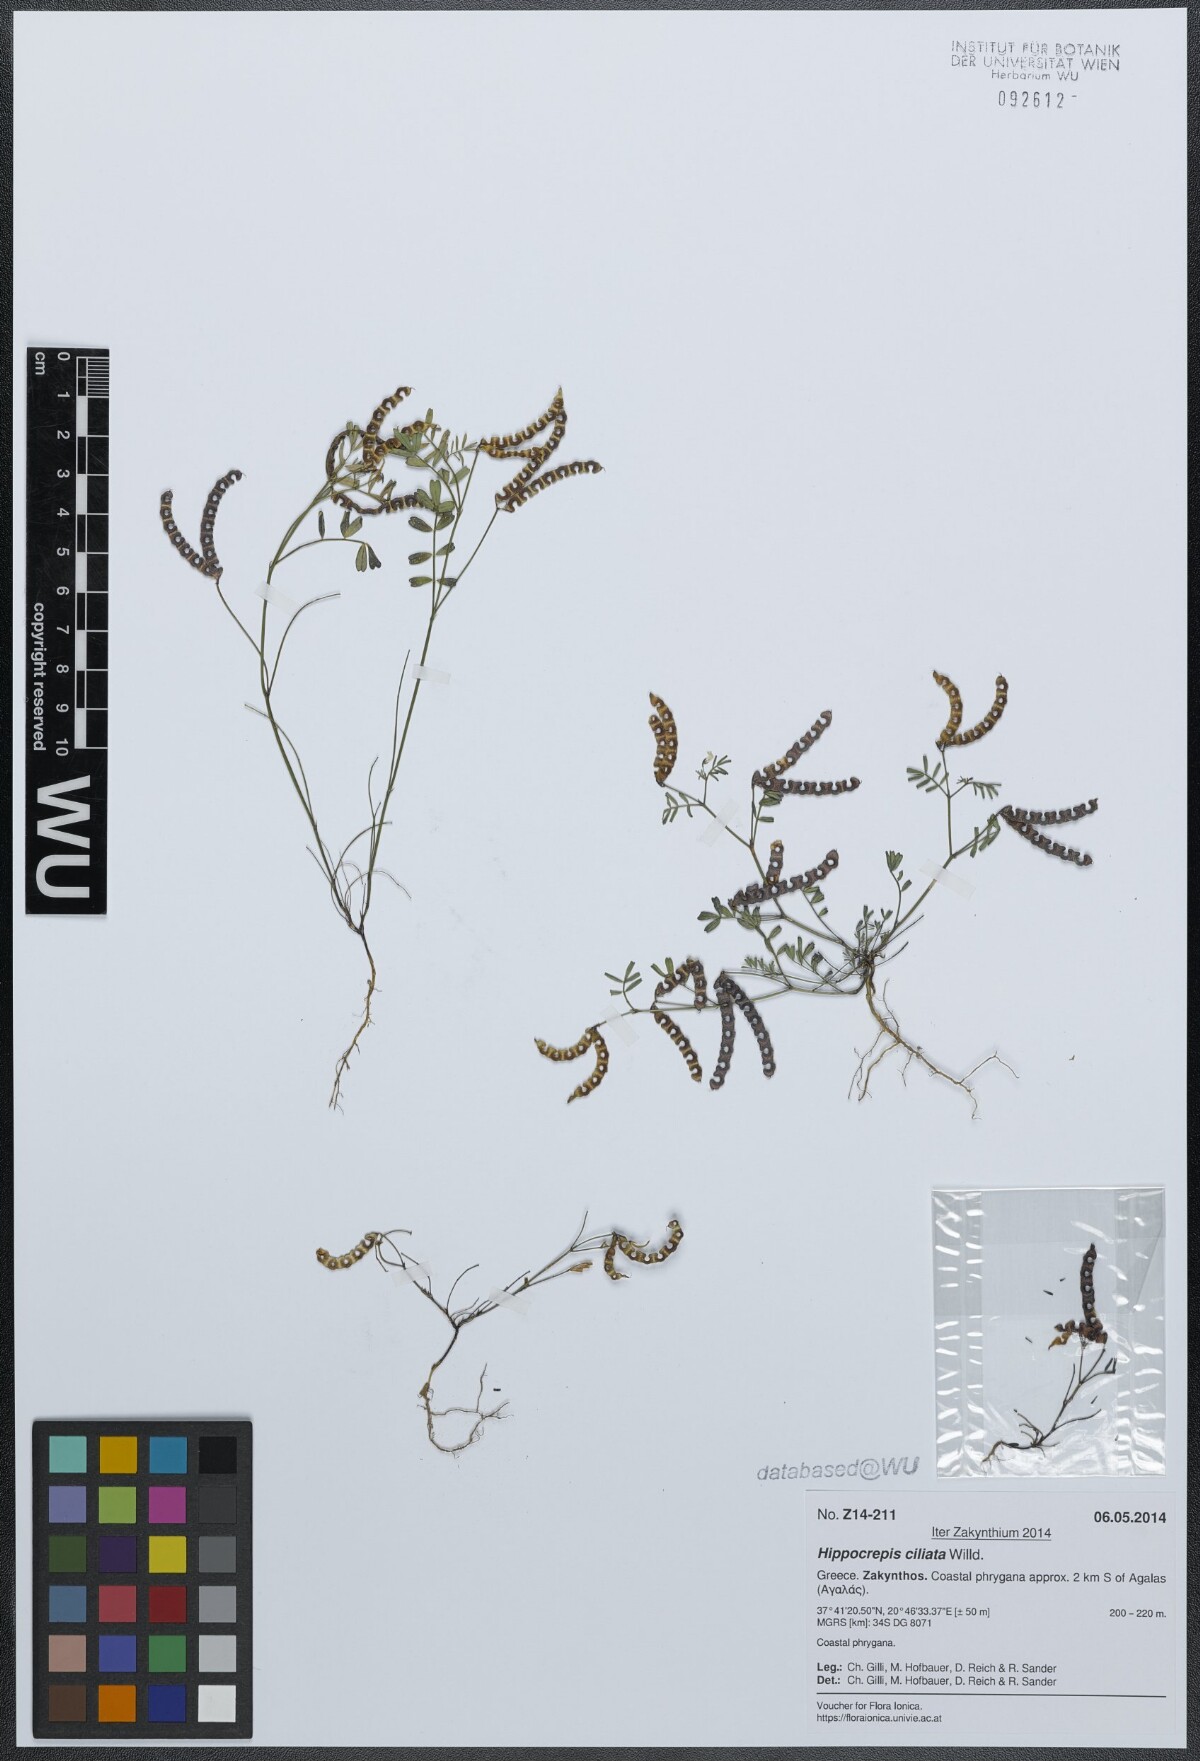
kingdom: Plantae
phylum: Tracheophyta
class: Magnoliopsida
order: Fabales
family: Fabaceae
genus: Hippocrepis
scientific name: Hippocrepis ciliata
